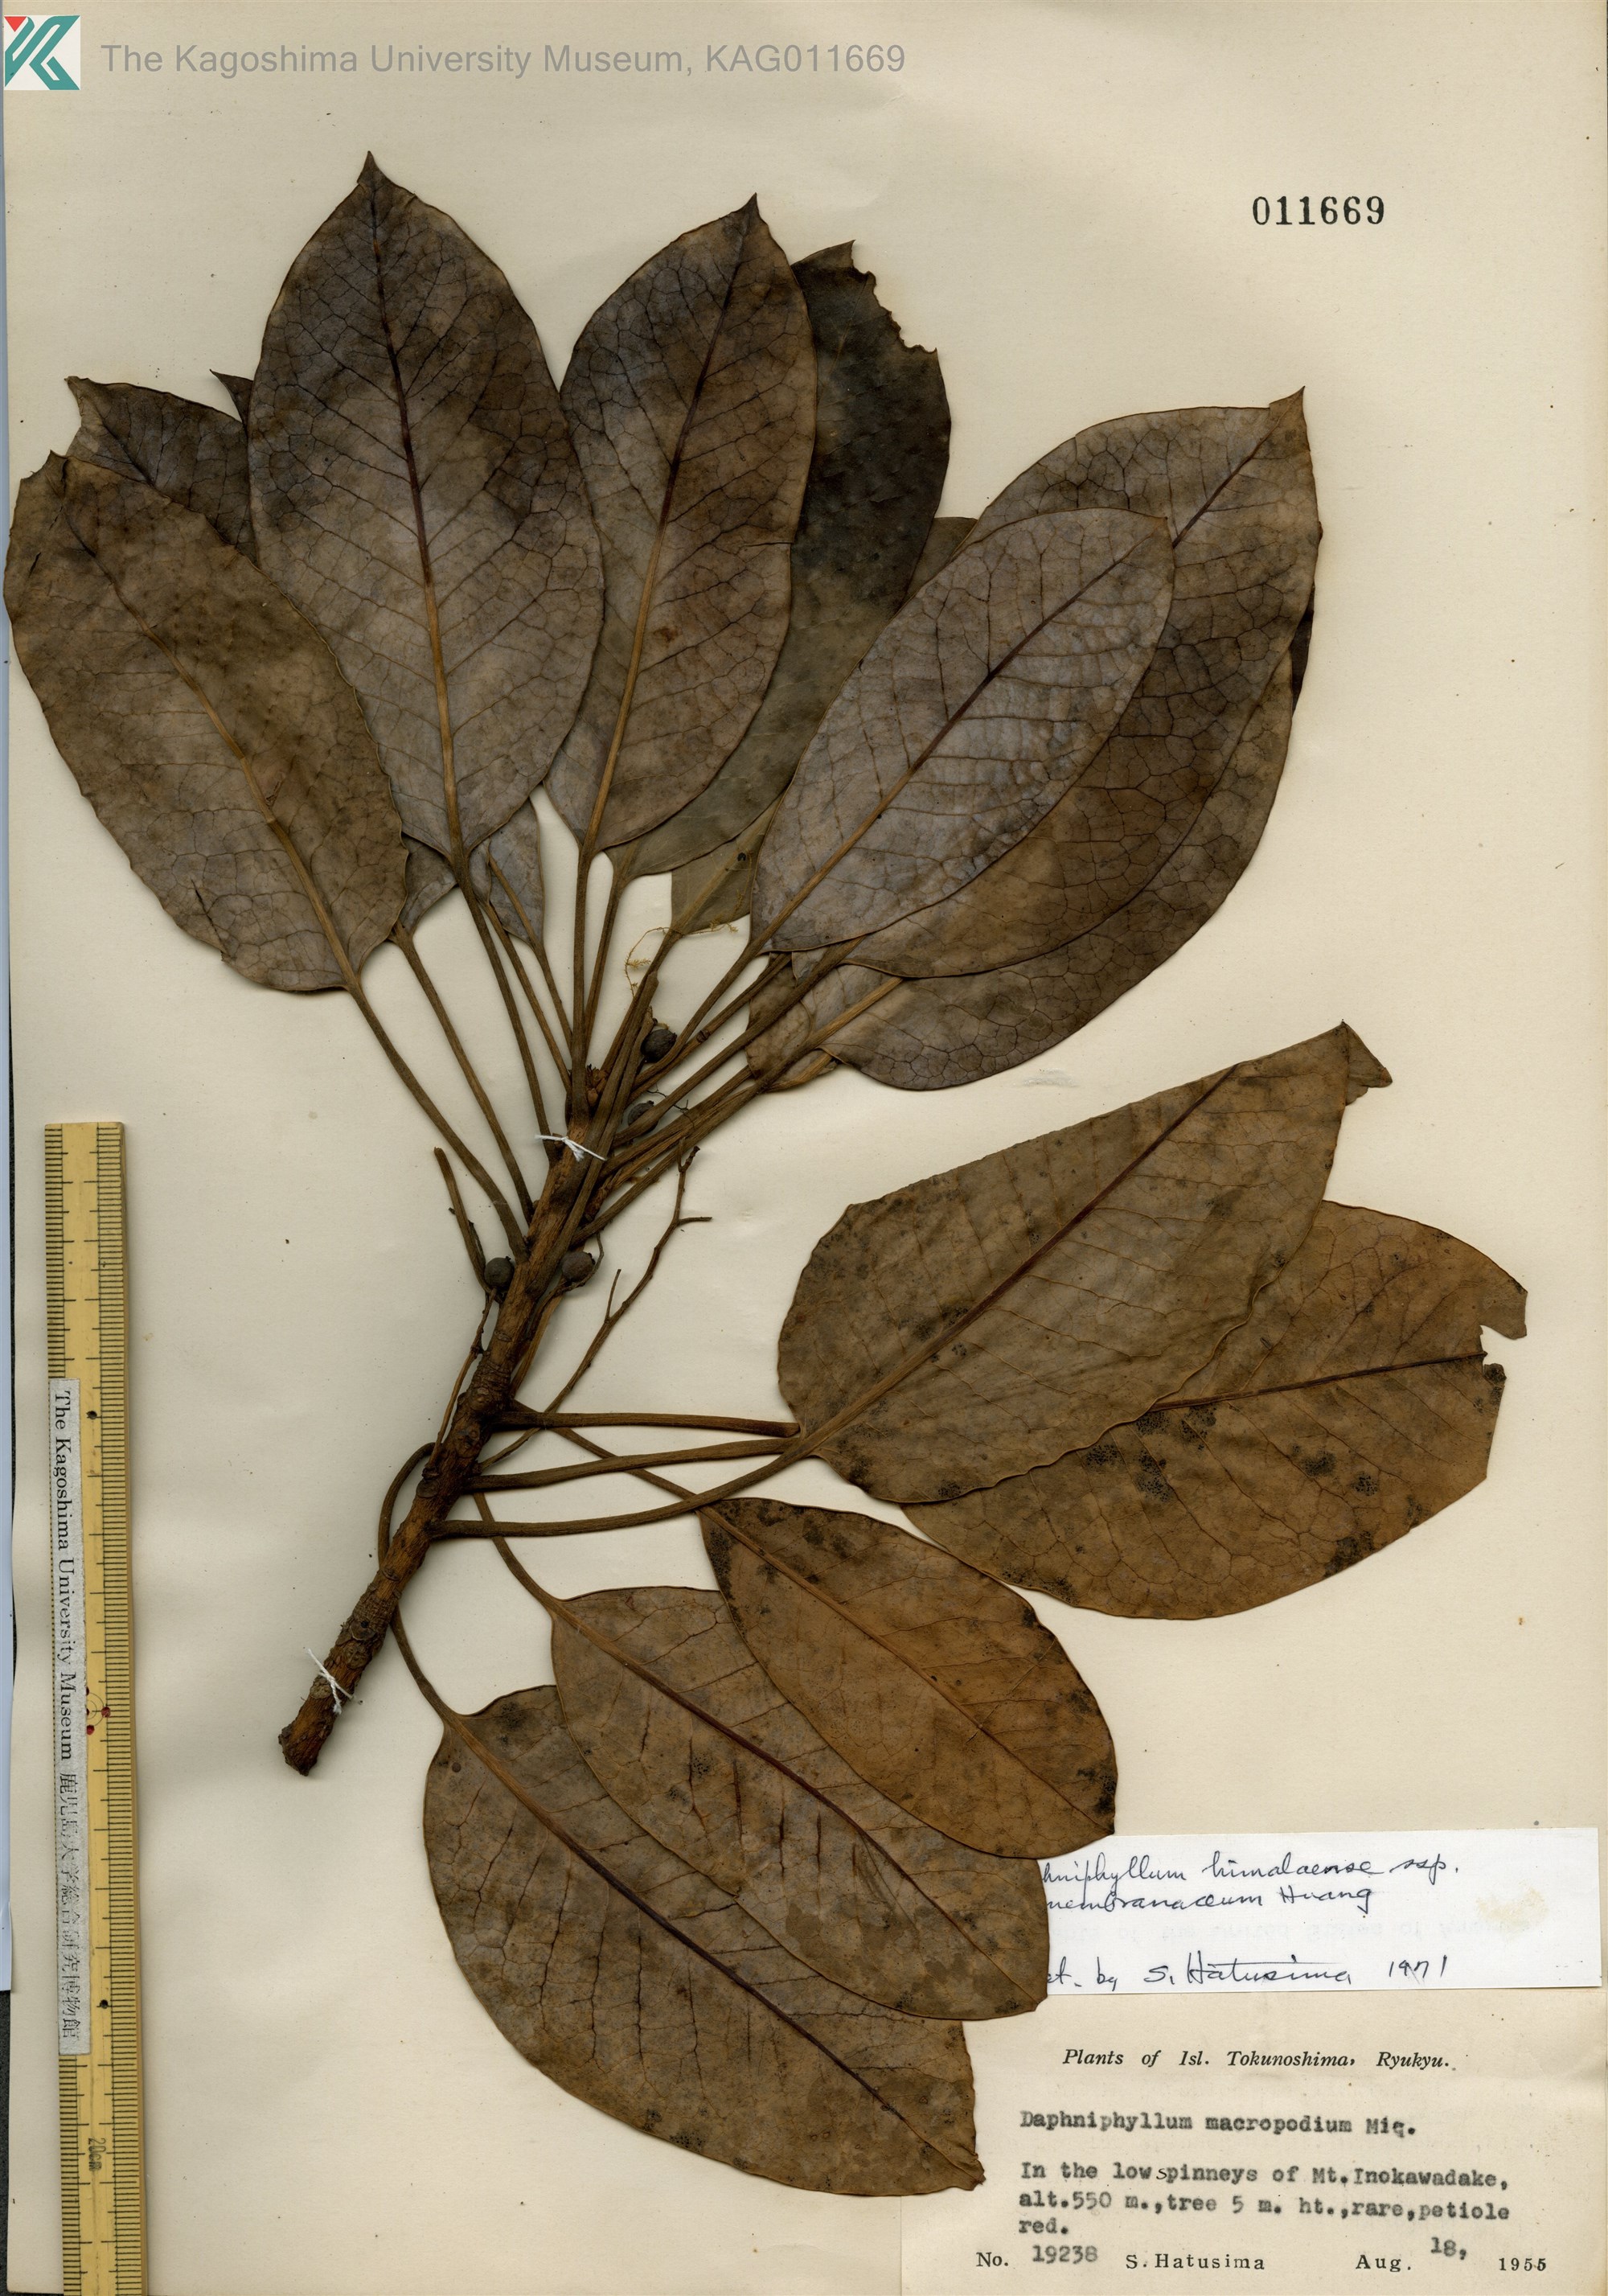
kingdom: Plantae
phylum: Tracheophyta
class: Magnoliopsida
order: Saxifragales
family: Daphniphyllaceae
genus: Daphniphyllum
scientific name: Daphniphyllum macropodum
